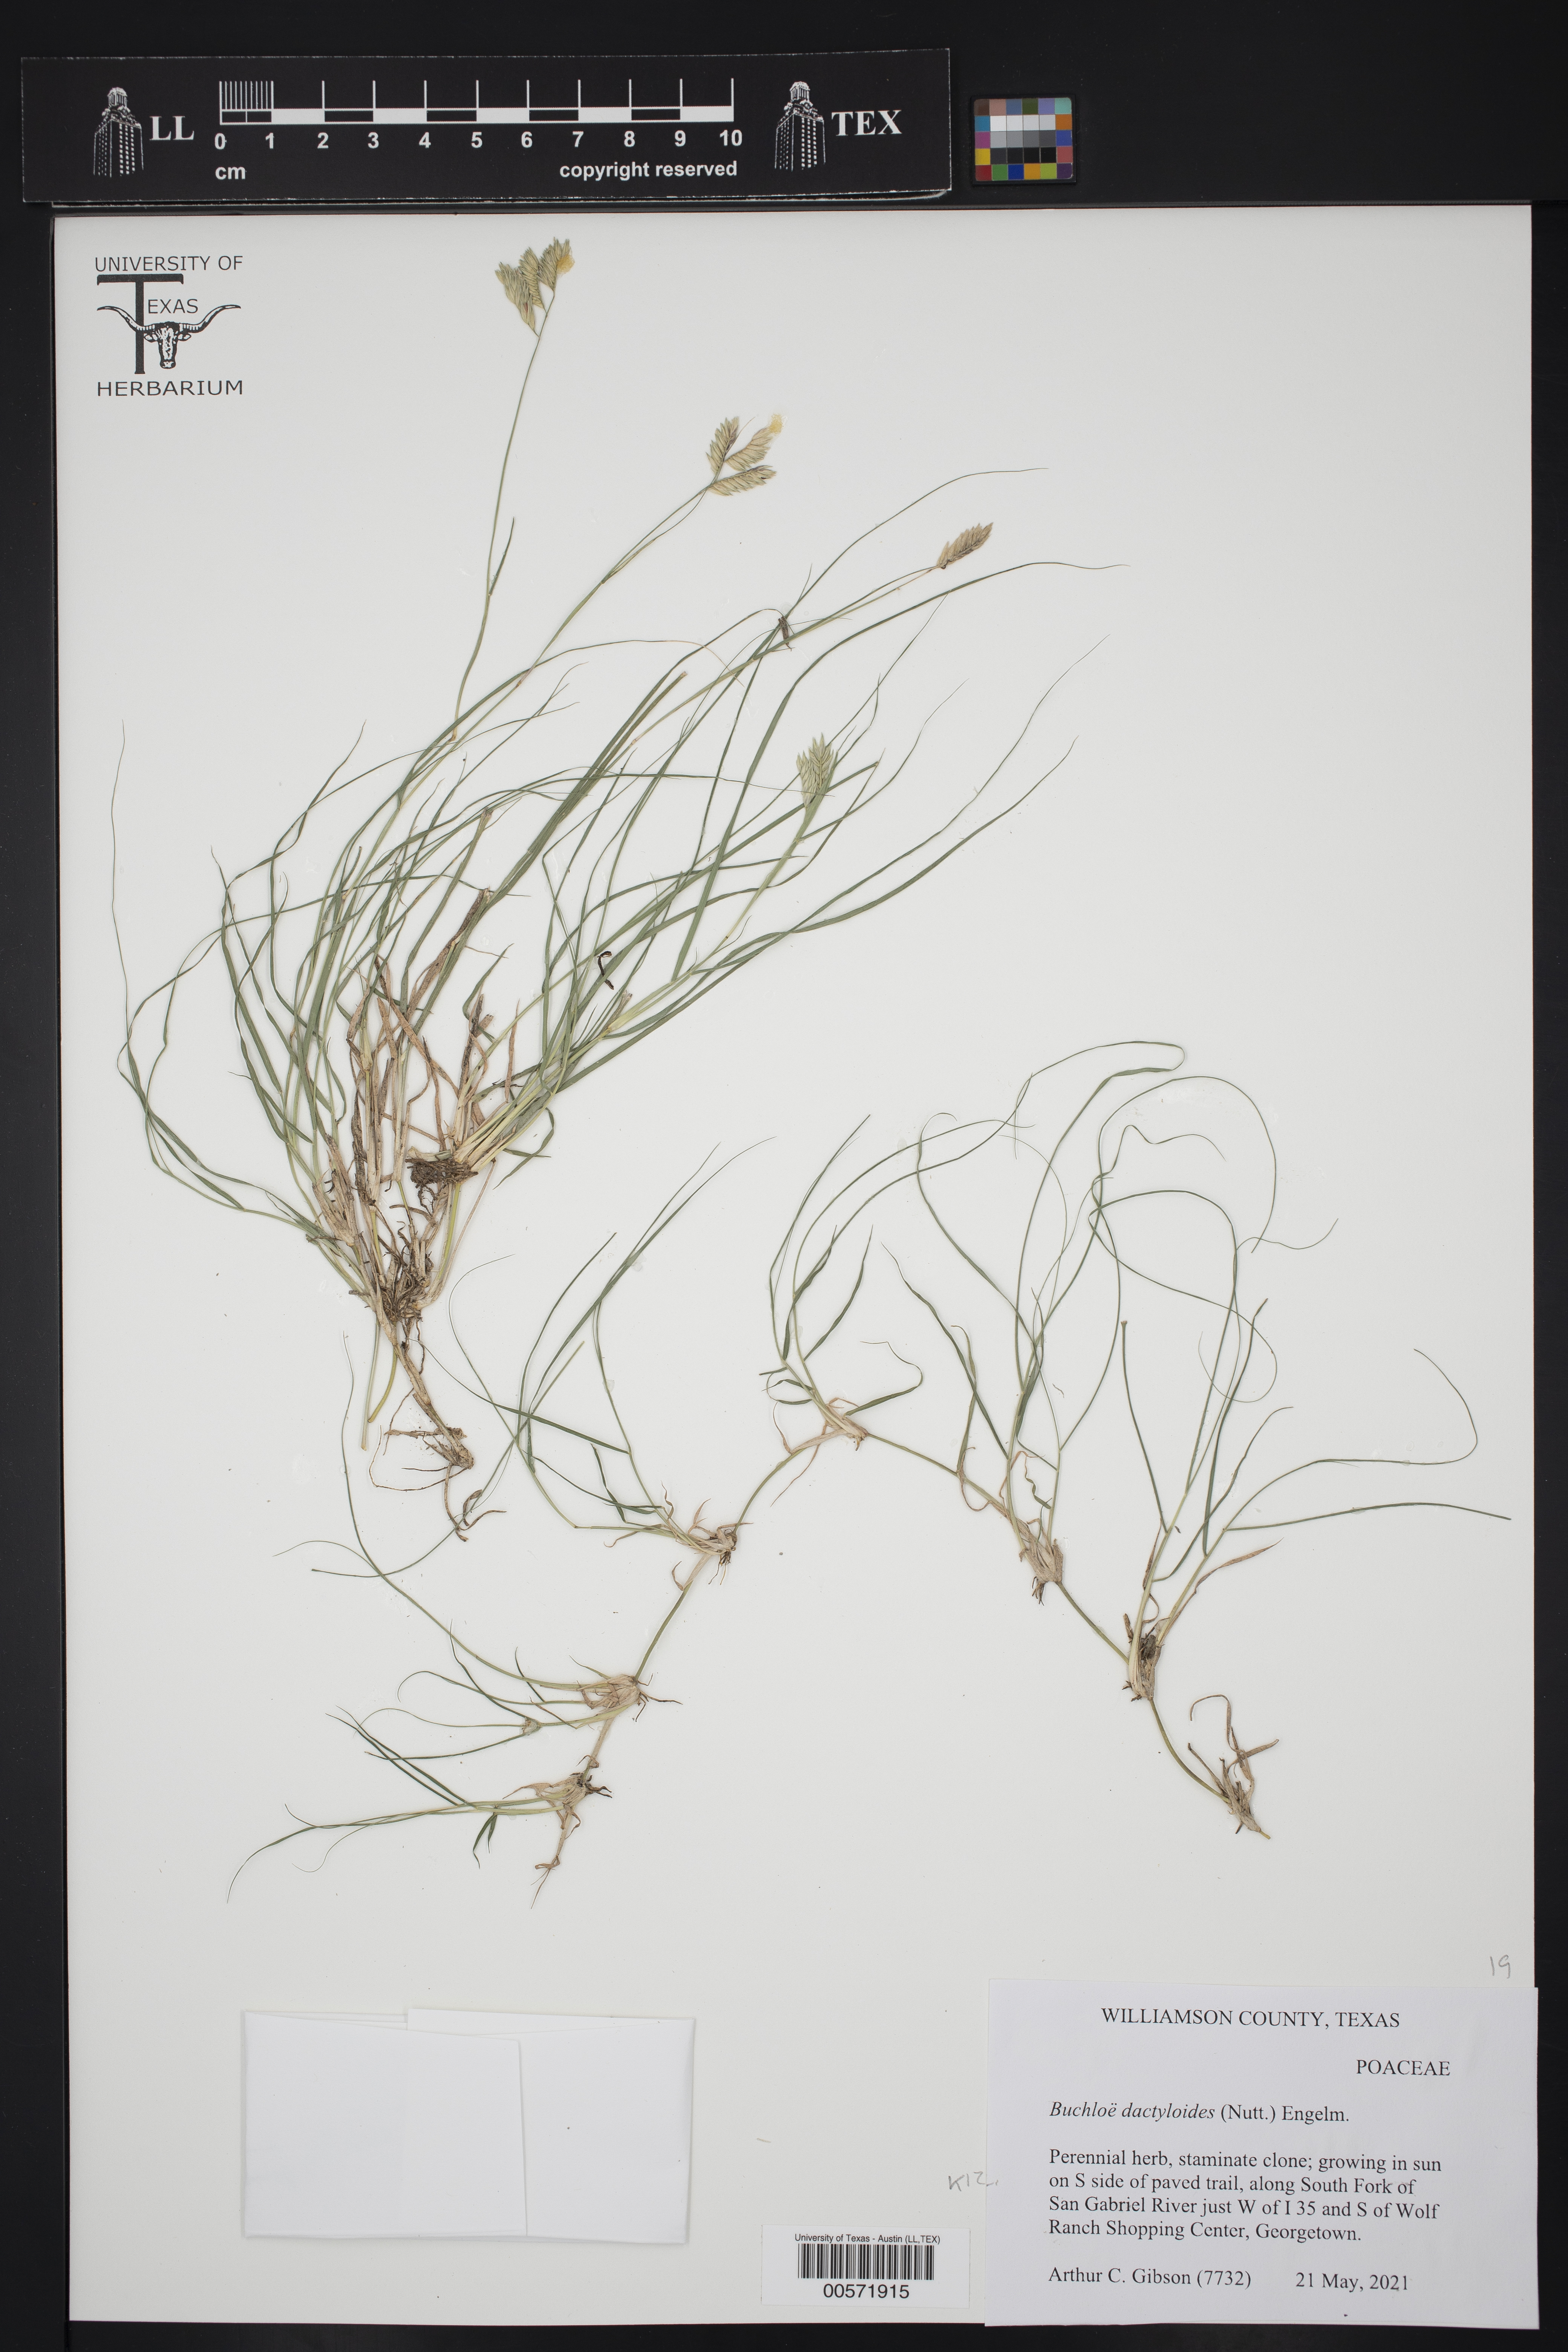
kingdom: Plantae
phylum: Tracheophyta
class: Liliopsida
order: Poales
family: Poaceae
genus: Bouteloua
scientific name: Bouteloua dactyloides
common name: Buffalo grass
